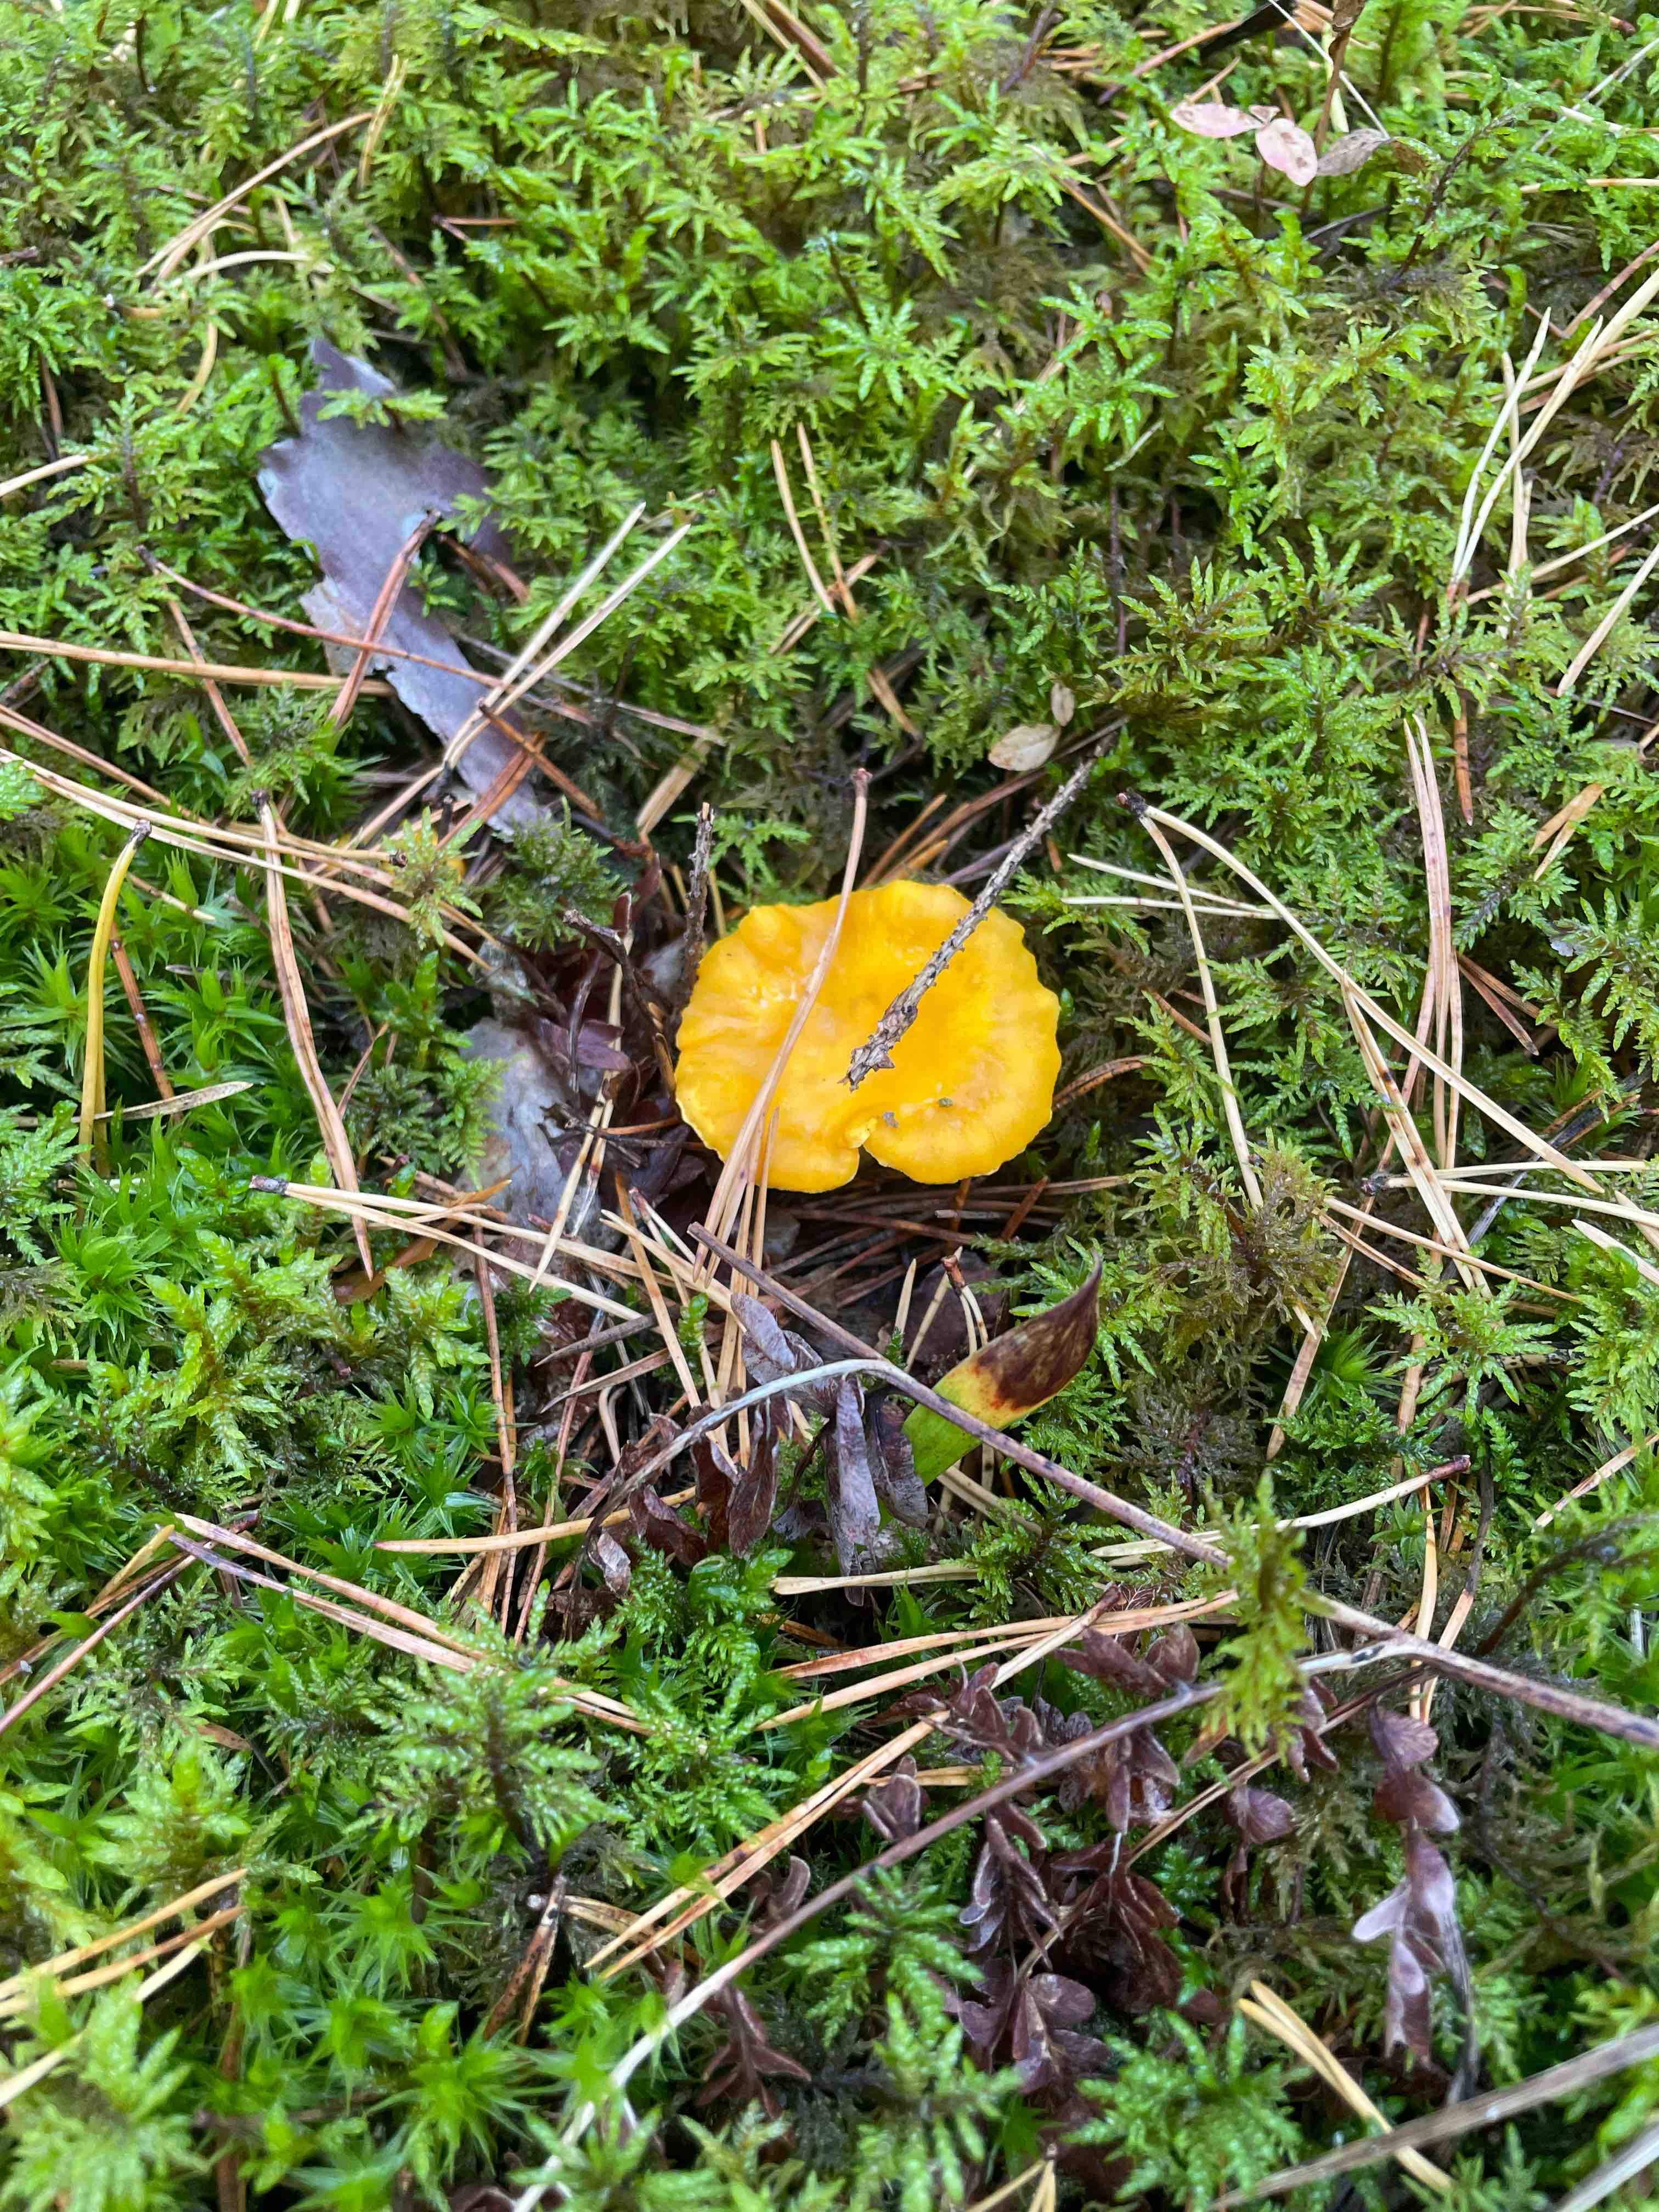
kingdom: Fungi
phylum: Basidiomycota
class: Agaricomycetes
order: Cantharellales
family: Hydnaceae
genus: Cantharellus
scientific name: Cantharellus cibarius
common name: almindelig kantarel
